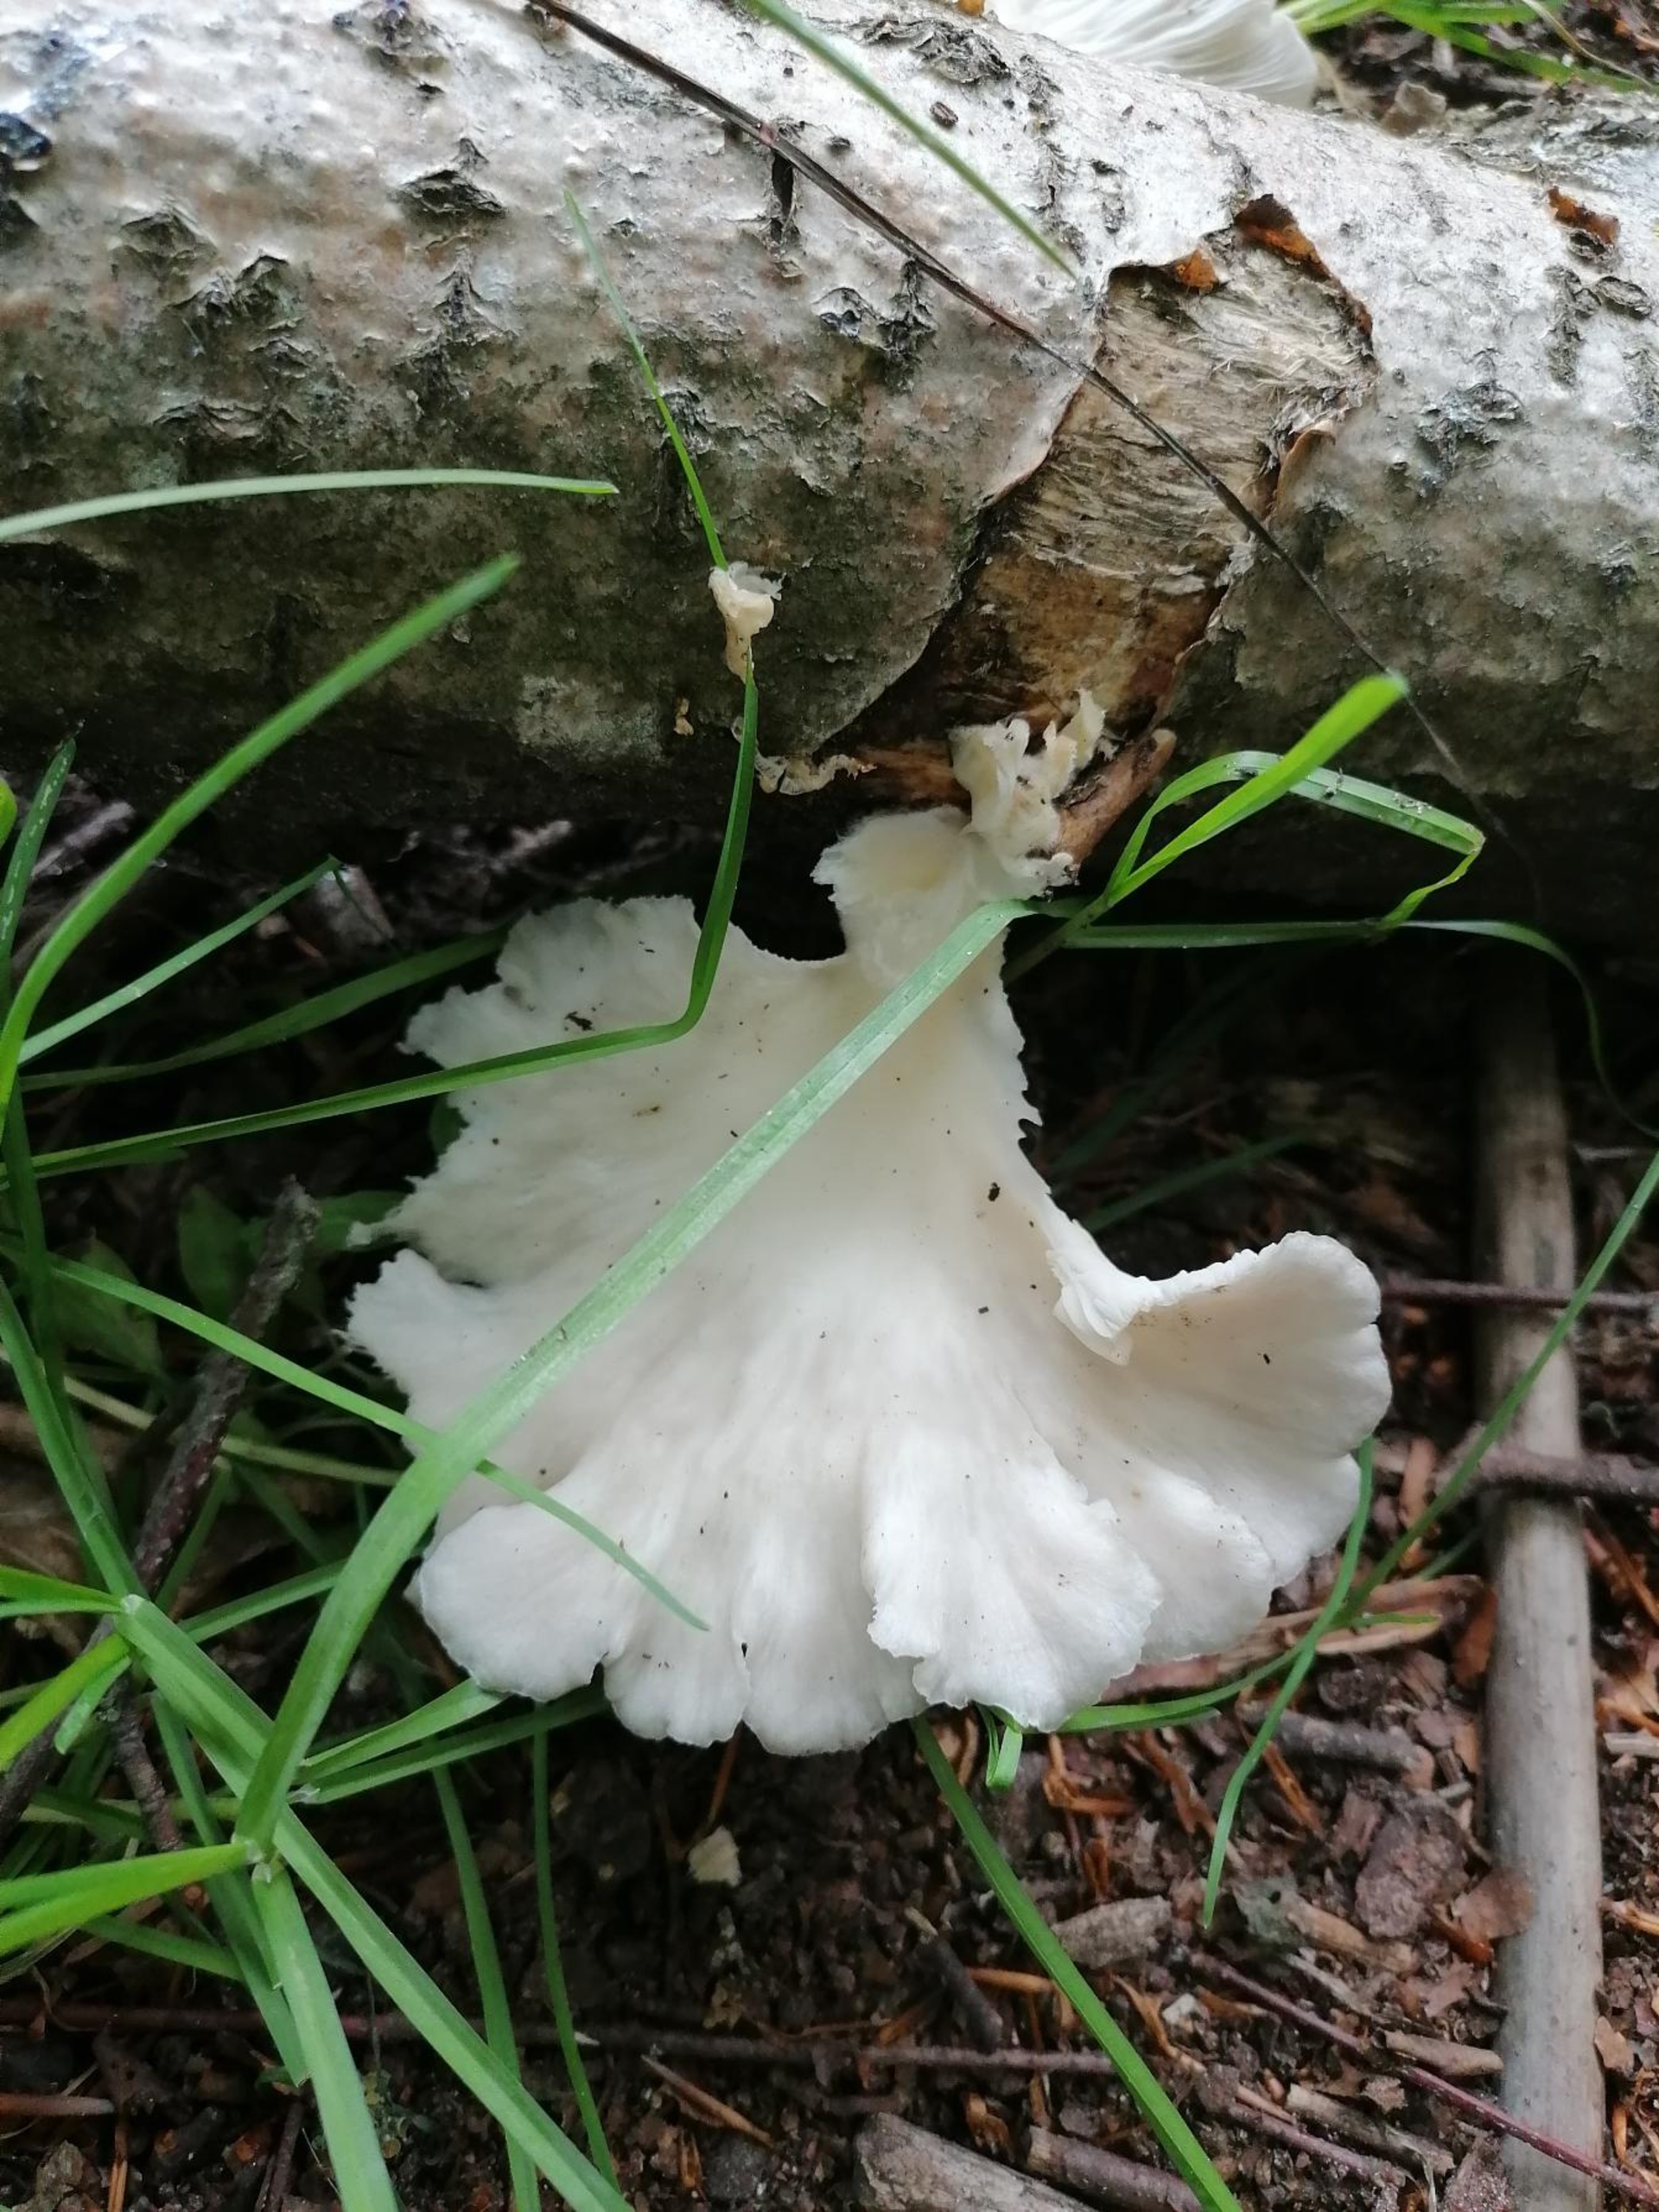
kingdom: Fungi
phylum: Basidiomycota
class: Agaricomycetes
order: Agaricales
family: Pleurotaceae
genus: Pleurotus
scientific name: Pleurotus pulmonarius
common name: Sommer-østershat
